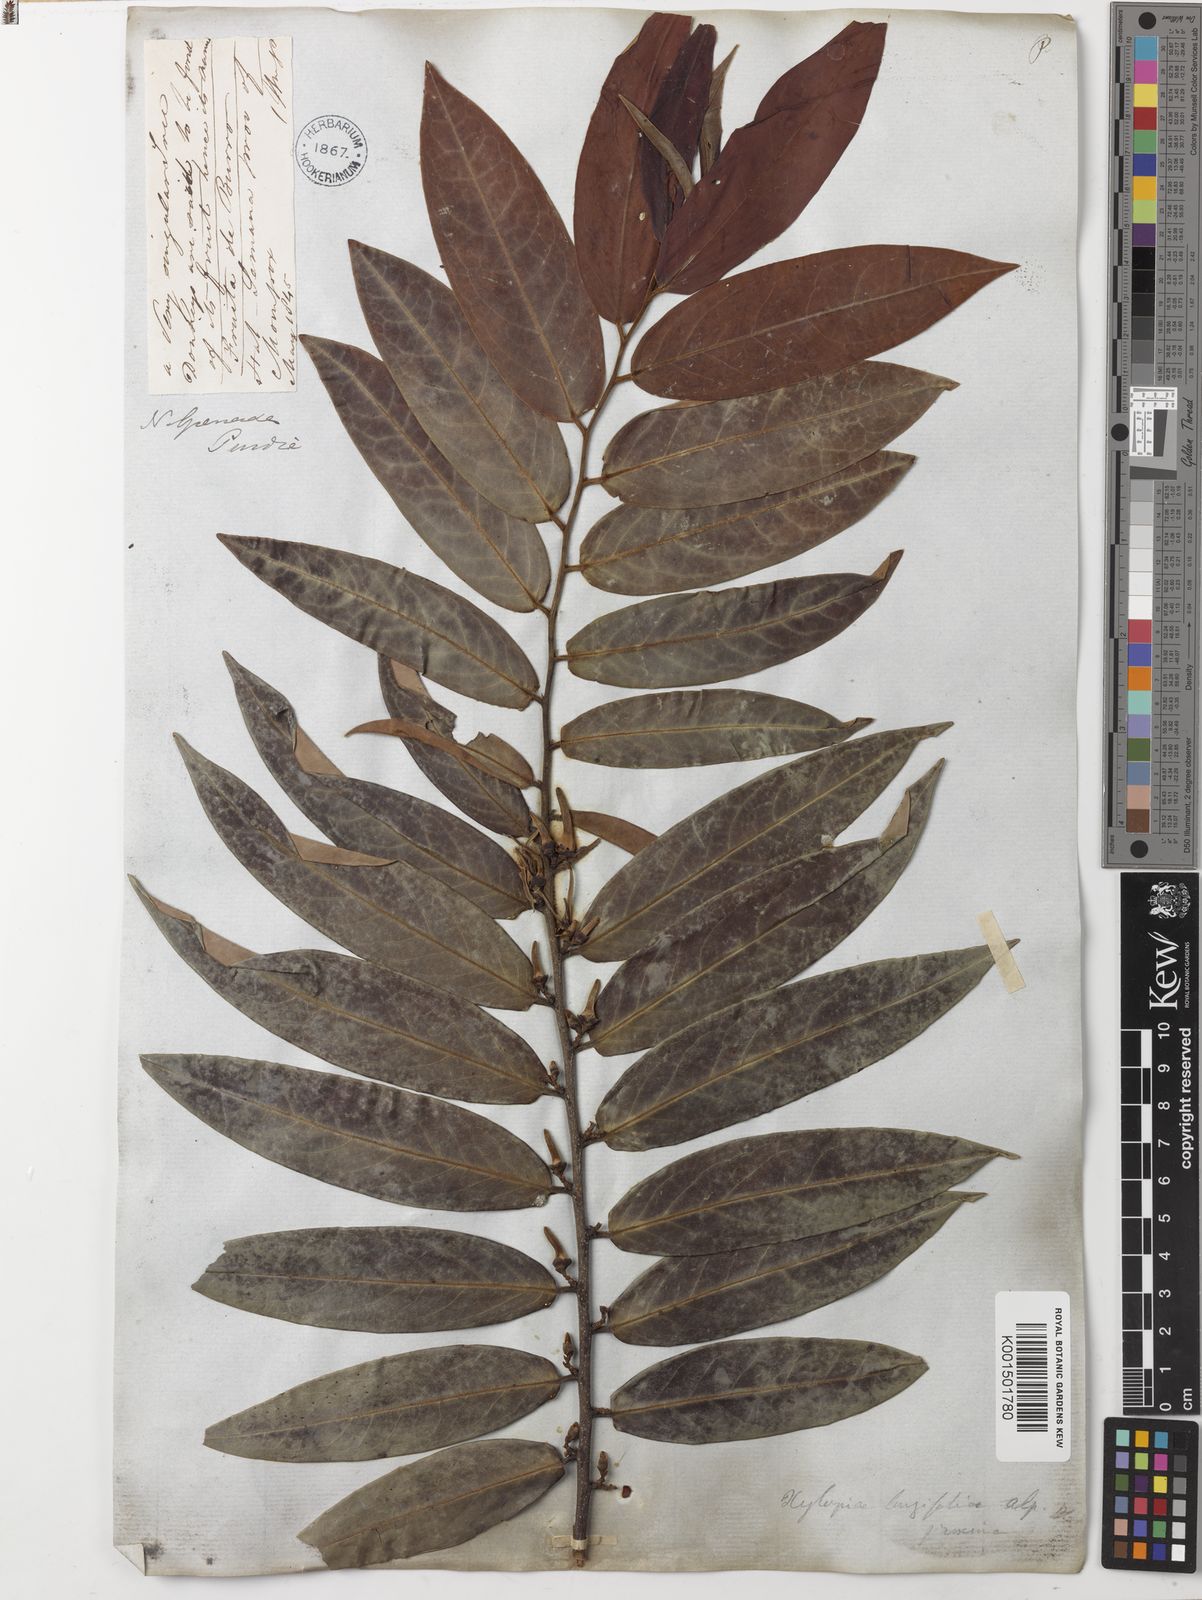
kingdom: Plantae
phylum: Tracheophyta
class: Magnoliopsida
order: Magnoliales
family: Annonaceae
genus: Xylopia
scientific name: Xylopia aromatica
